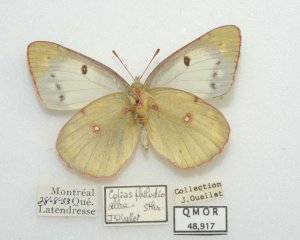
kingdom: Animalia
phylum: Arthropoda
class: Insecta
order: Lepidoptera
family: Pieridae
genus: Colias
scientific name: Colias philodice
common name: Clouded Sulphur
